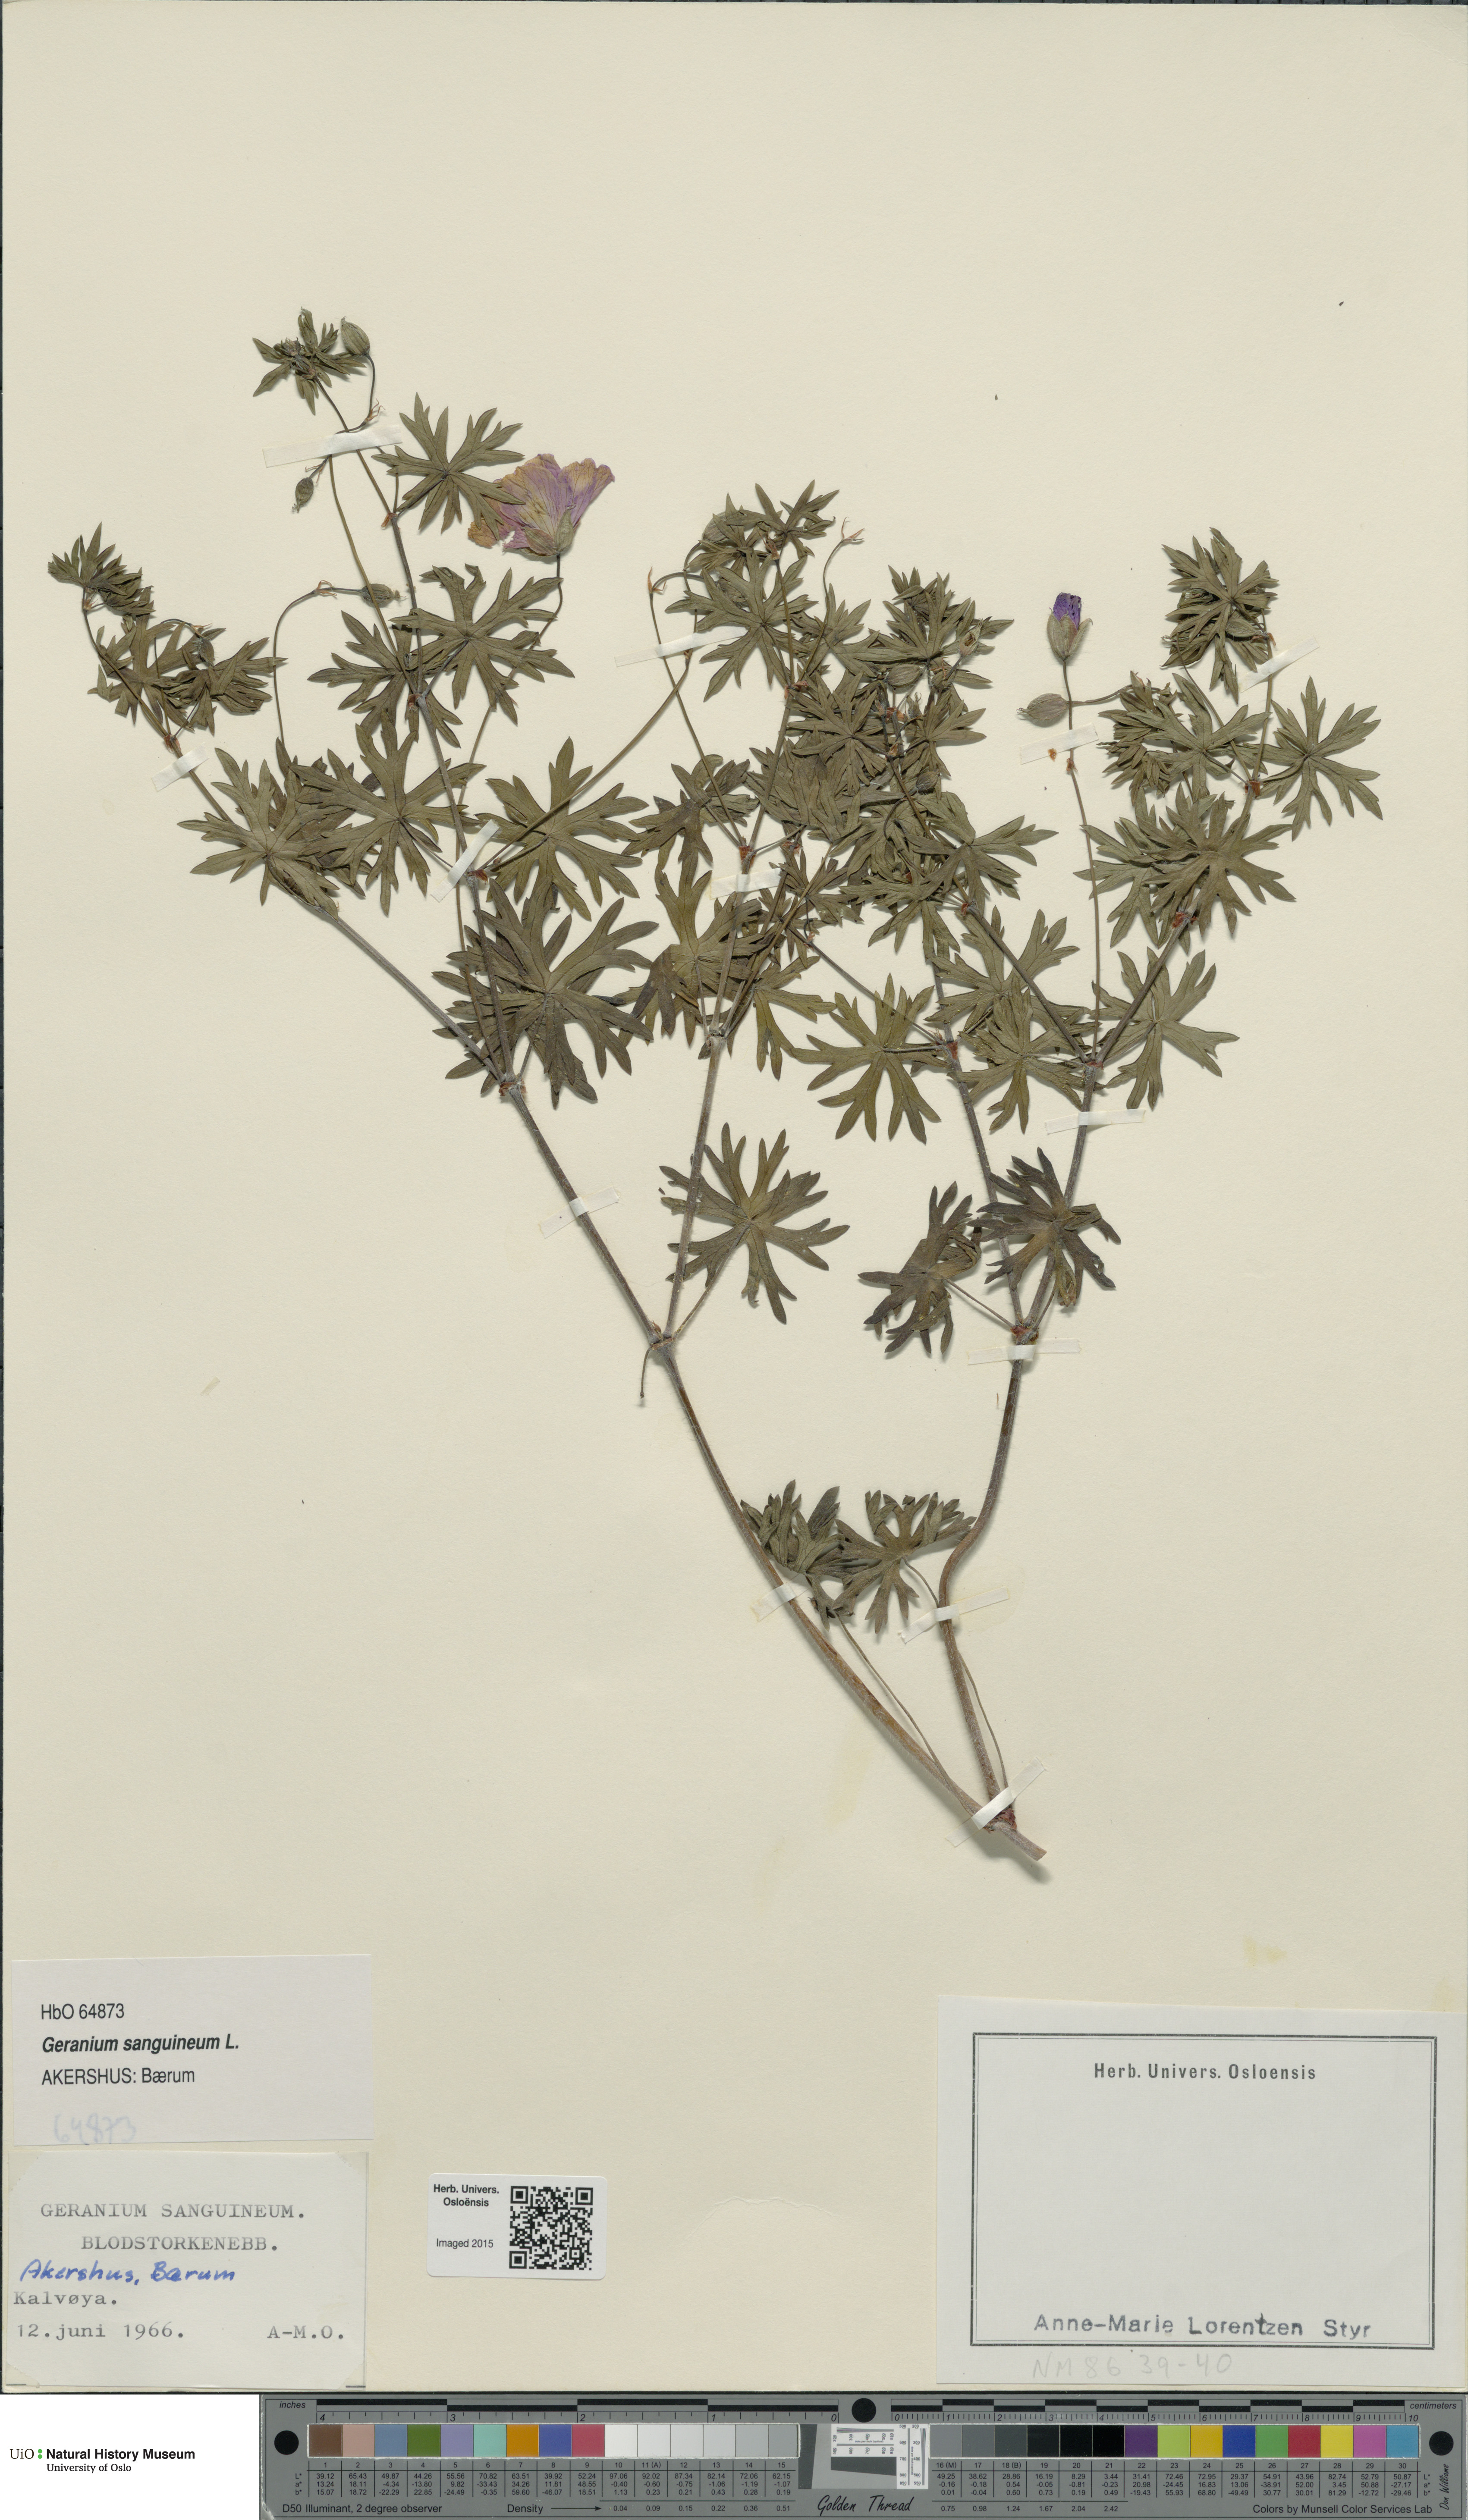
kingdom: Plantae
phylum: Tracheophyta
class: Magnoliopsida
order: Geraniales
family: Geraniaceae
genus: Geranium
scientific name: Geranium sanguineum
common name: Bloody crane's-bill
